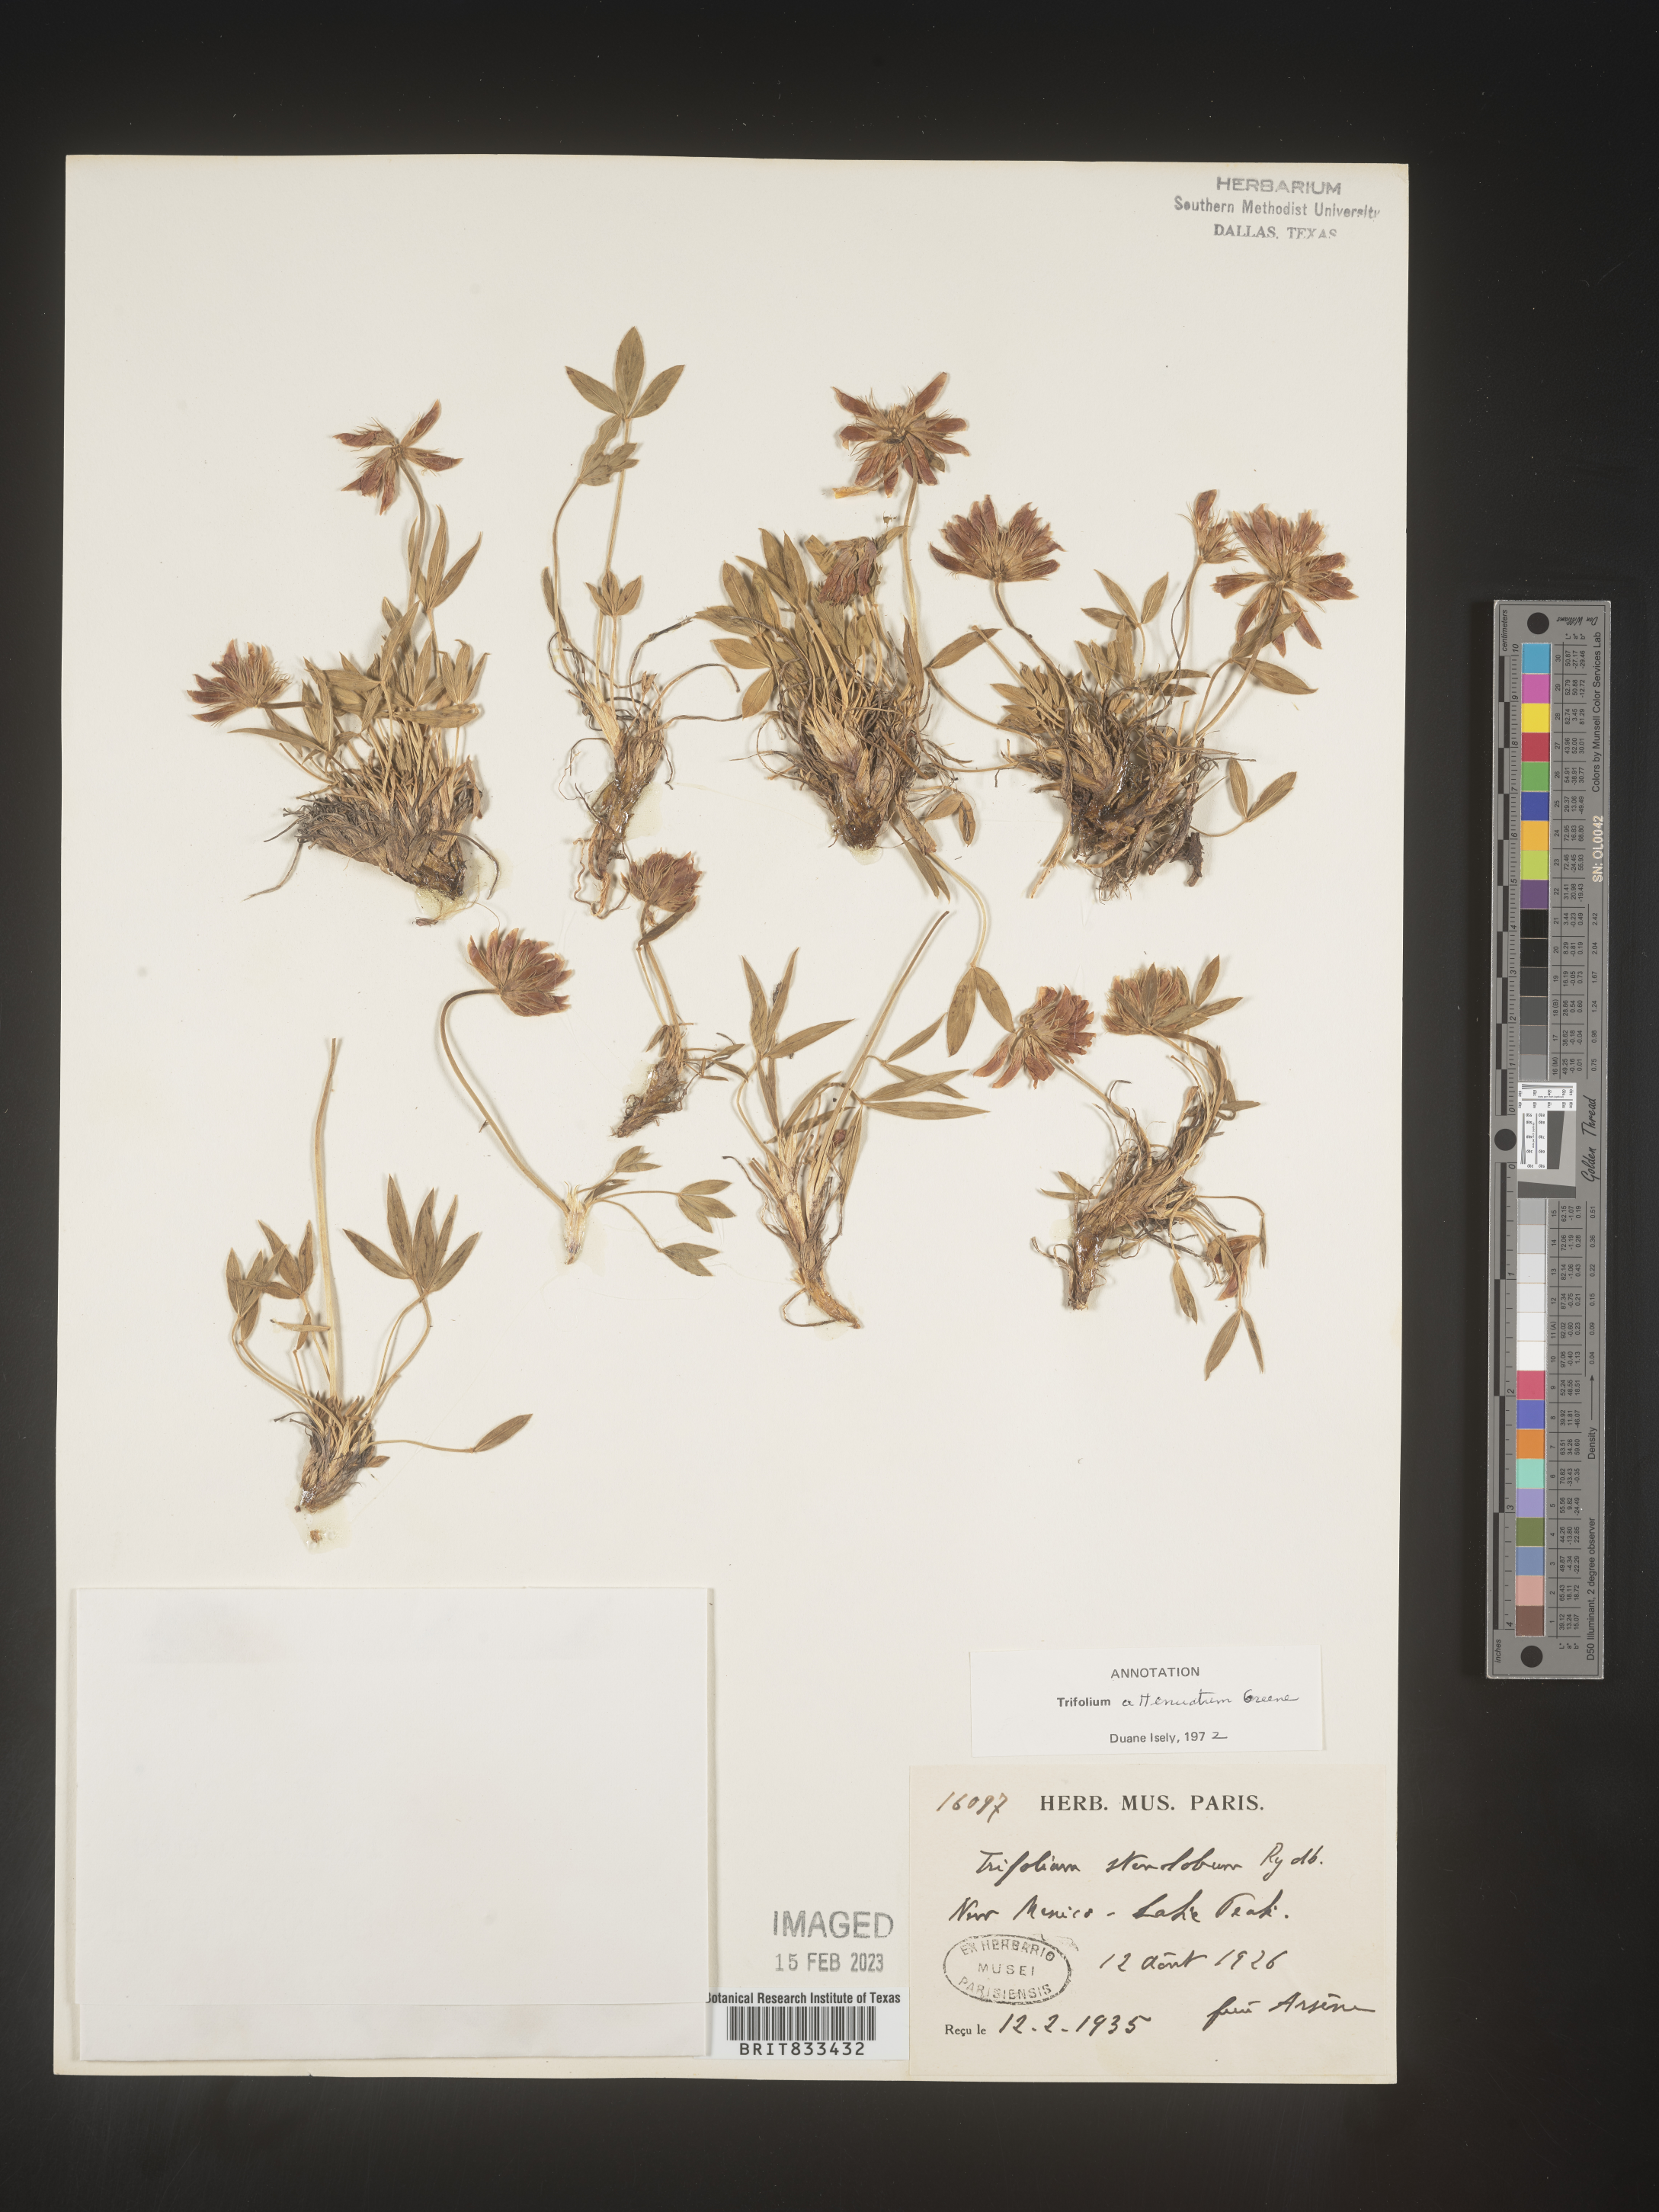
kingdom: Plantae
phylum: Tracheophyta
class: Magnoliopsida
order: Fabales
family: Fabaceae
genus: Trifolium
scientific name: Trifolium
